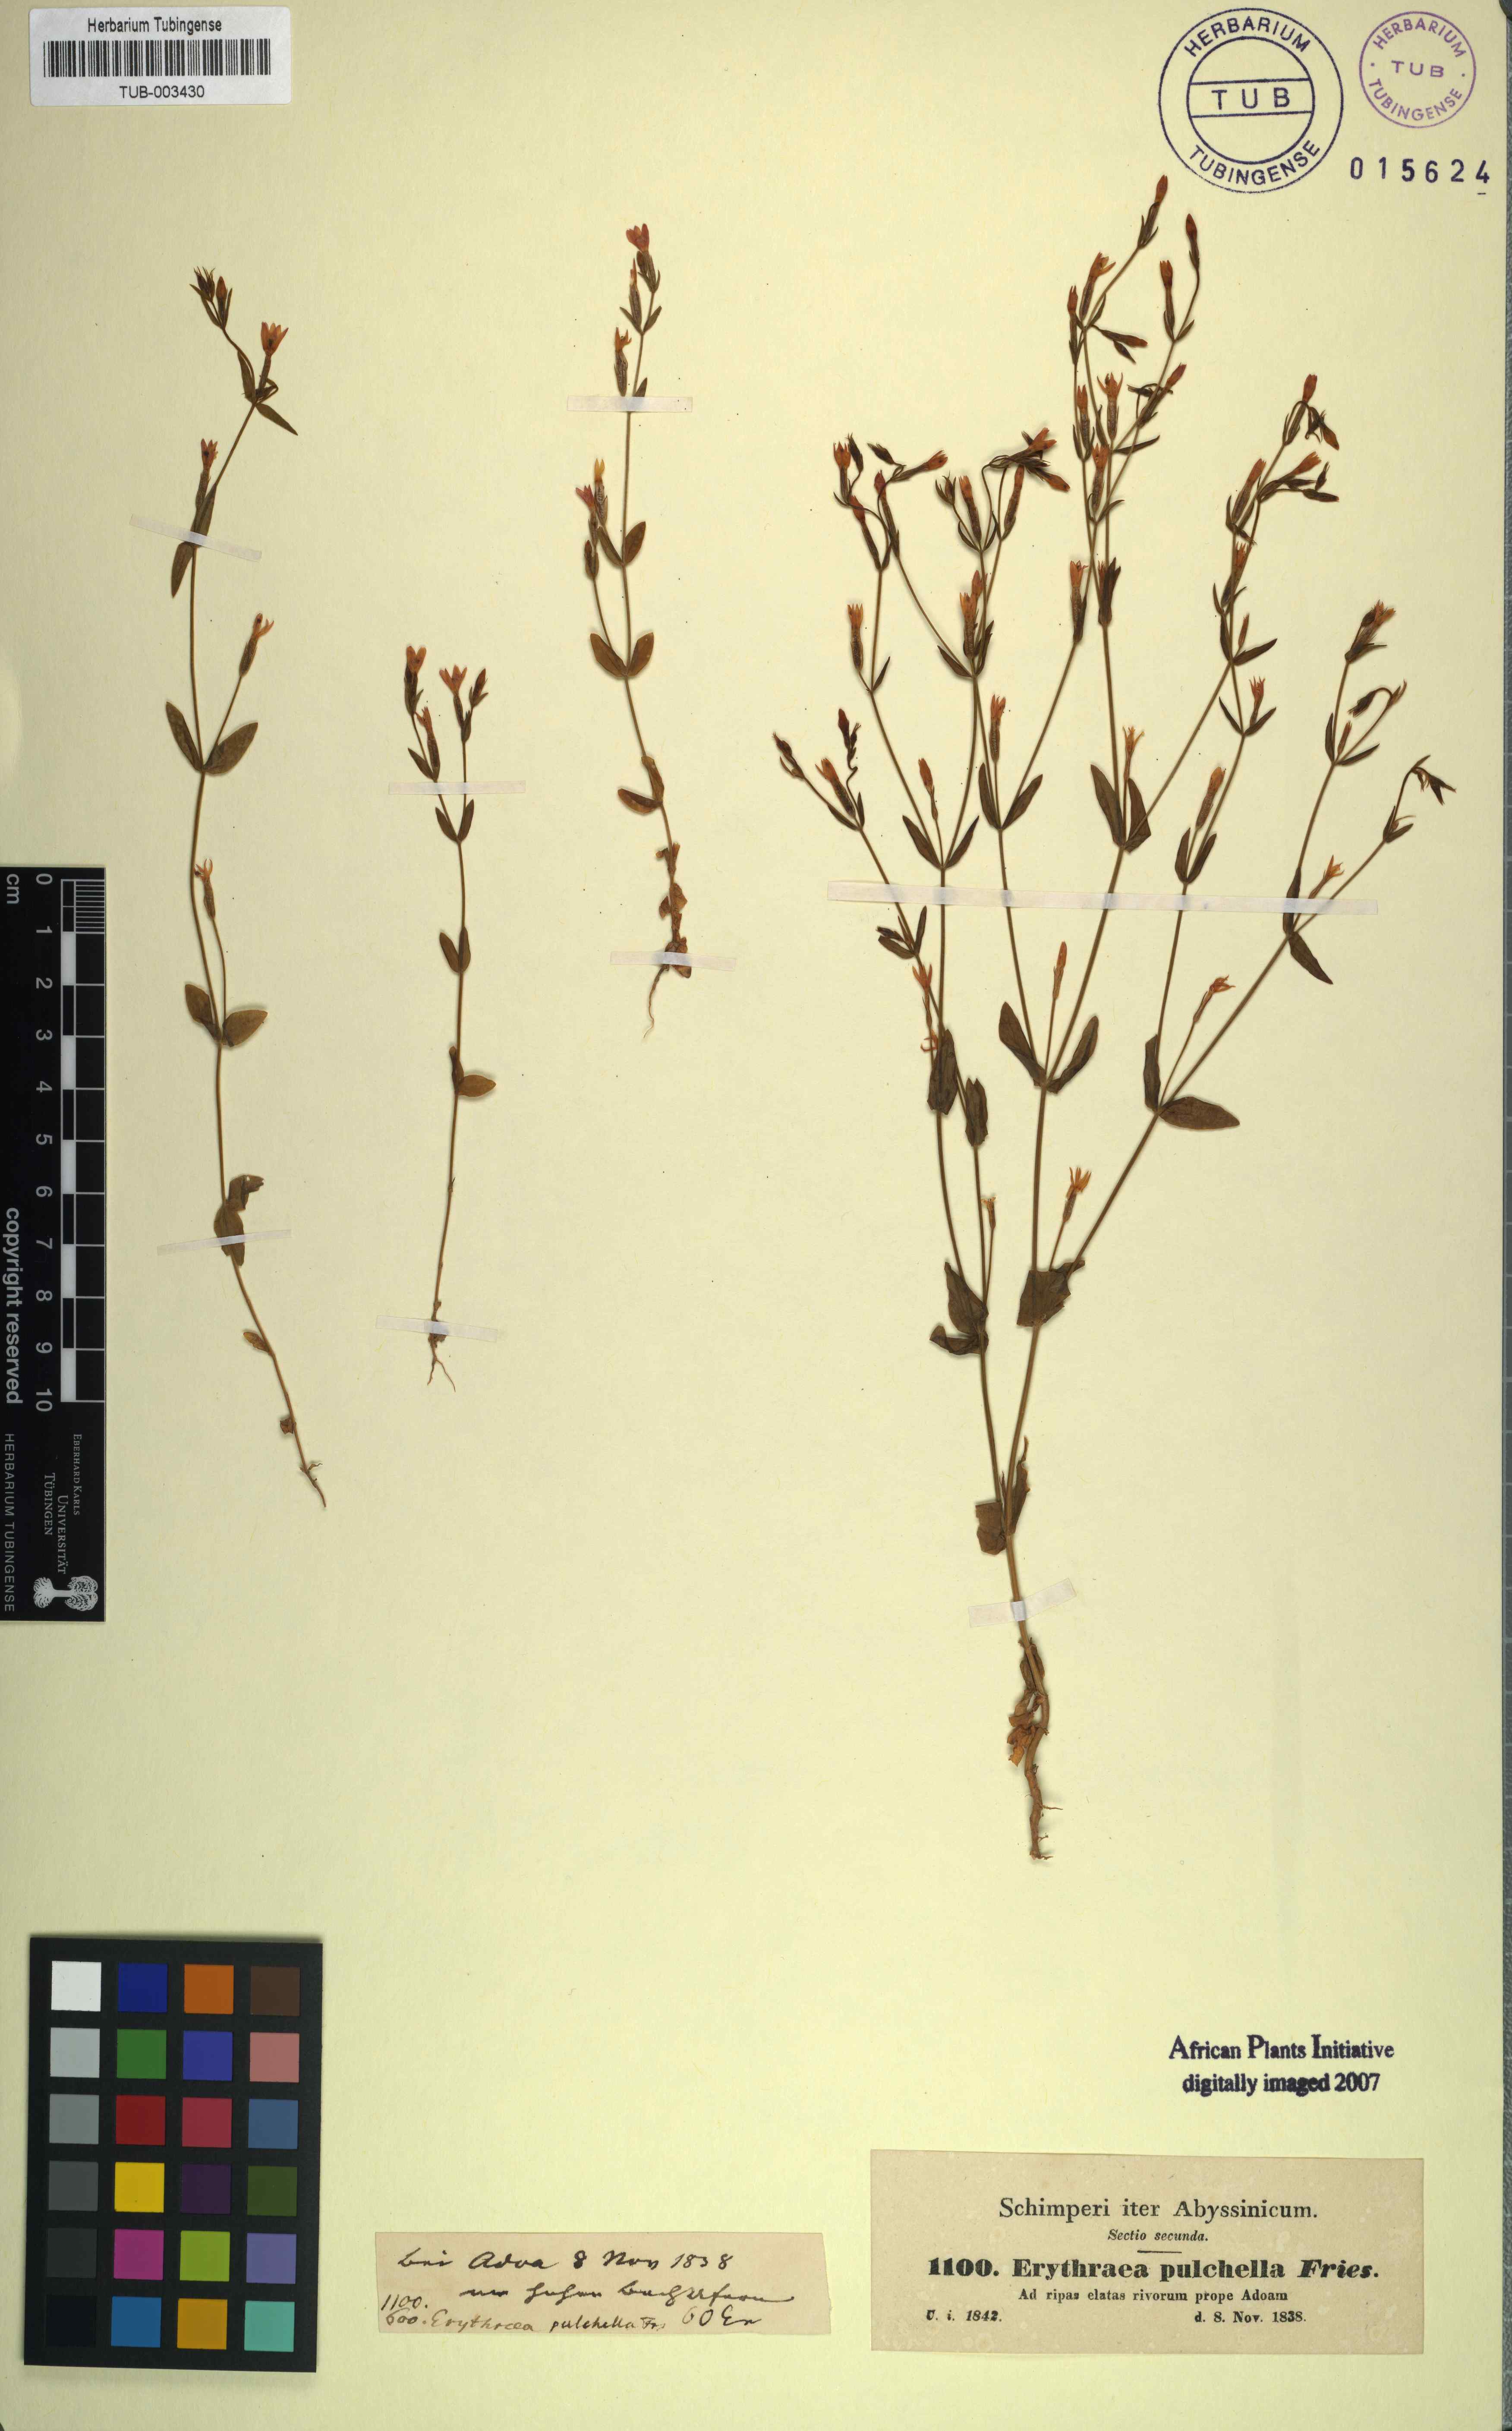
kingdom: Plantae
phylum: Tracheophyta
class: Magnoliopsida
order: Gentianales
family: Gentianaceae
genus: Centaurium
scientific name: Centaurium pulchellum
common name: Lesser centaury
